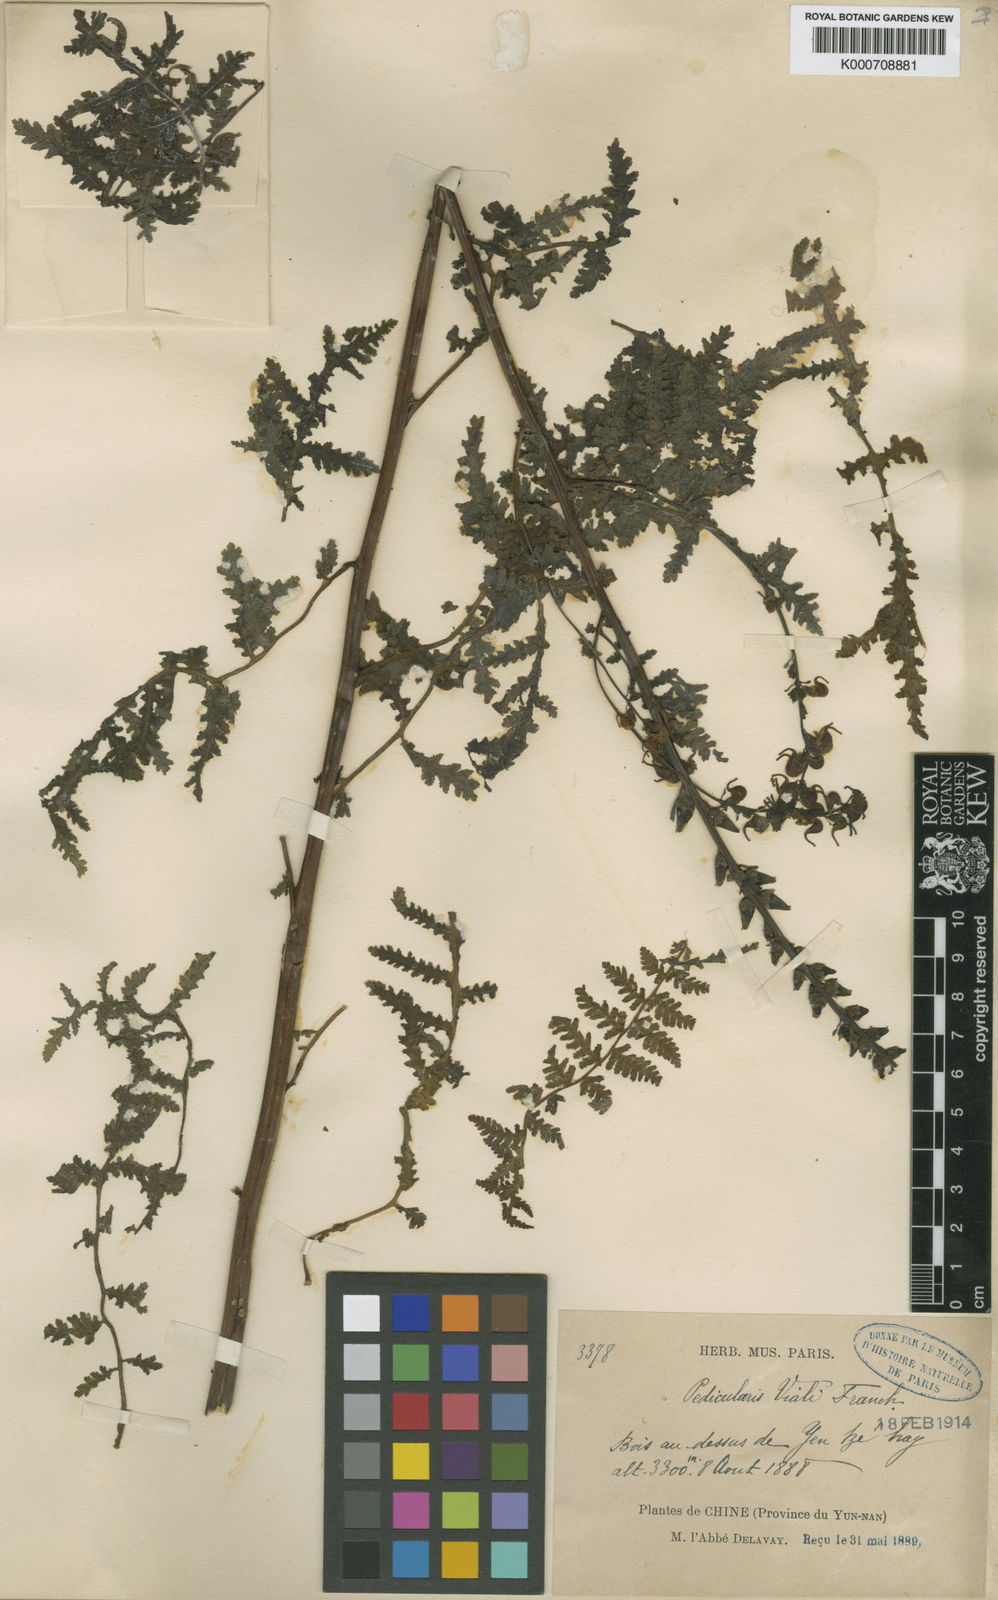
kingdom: Plantae
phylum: Tracheophyta
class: Magnoliopsida
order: Lamiales
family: Orobanchaceae
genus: Pedicularis
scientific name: Pedicularis
